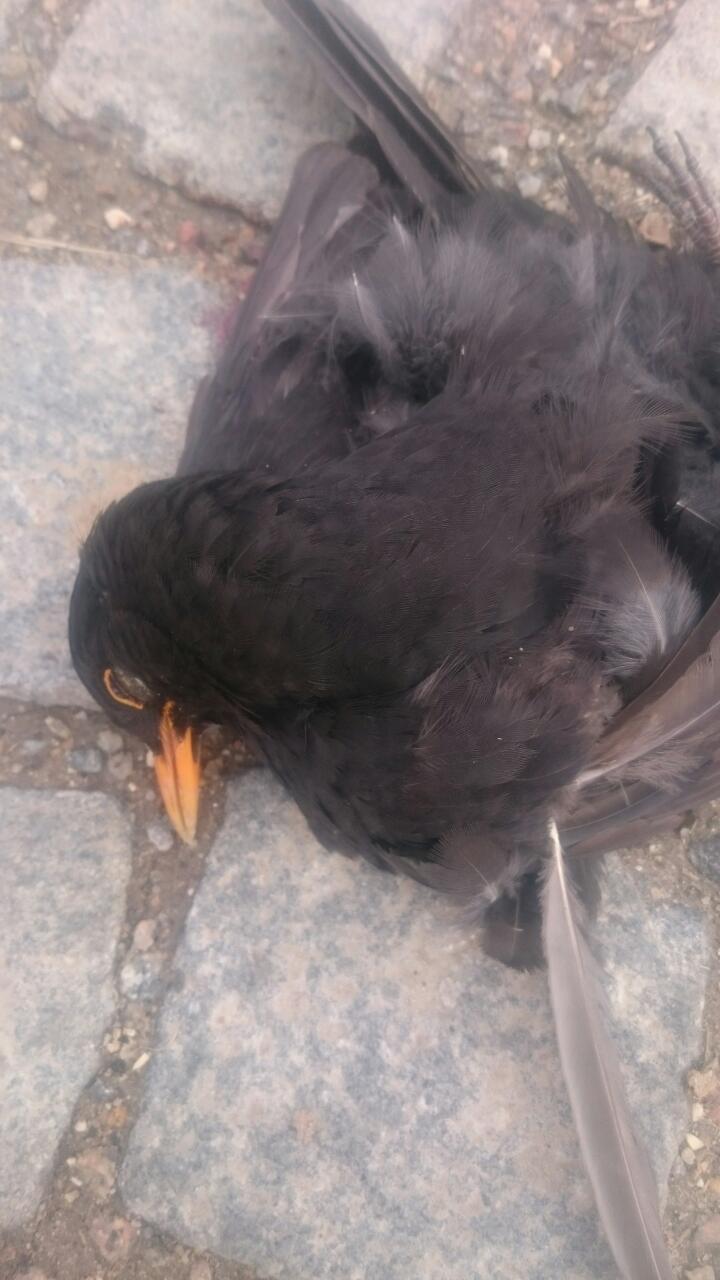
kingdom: Animalia
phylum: Chordata
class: Aves
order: Passeriformes
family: Turdidae
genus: Turdus
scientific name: Turdus merula
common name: Common blackbird
